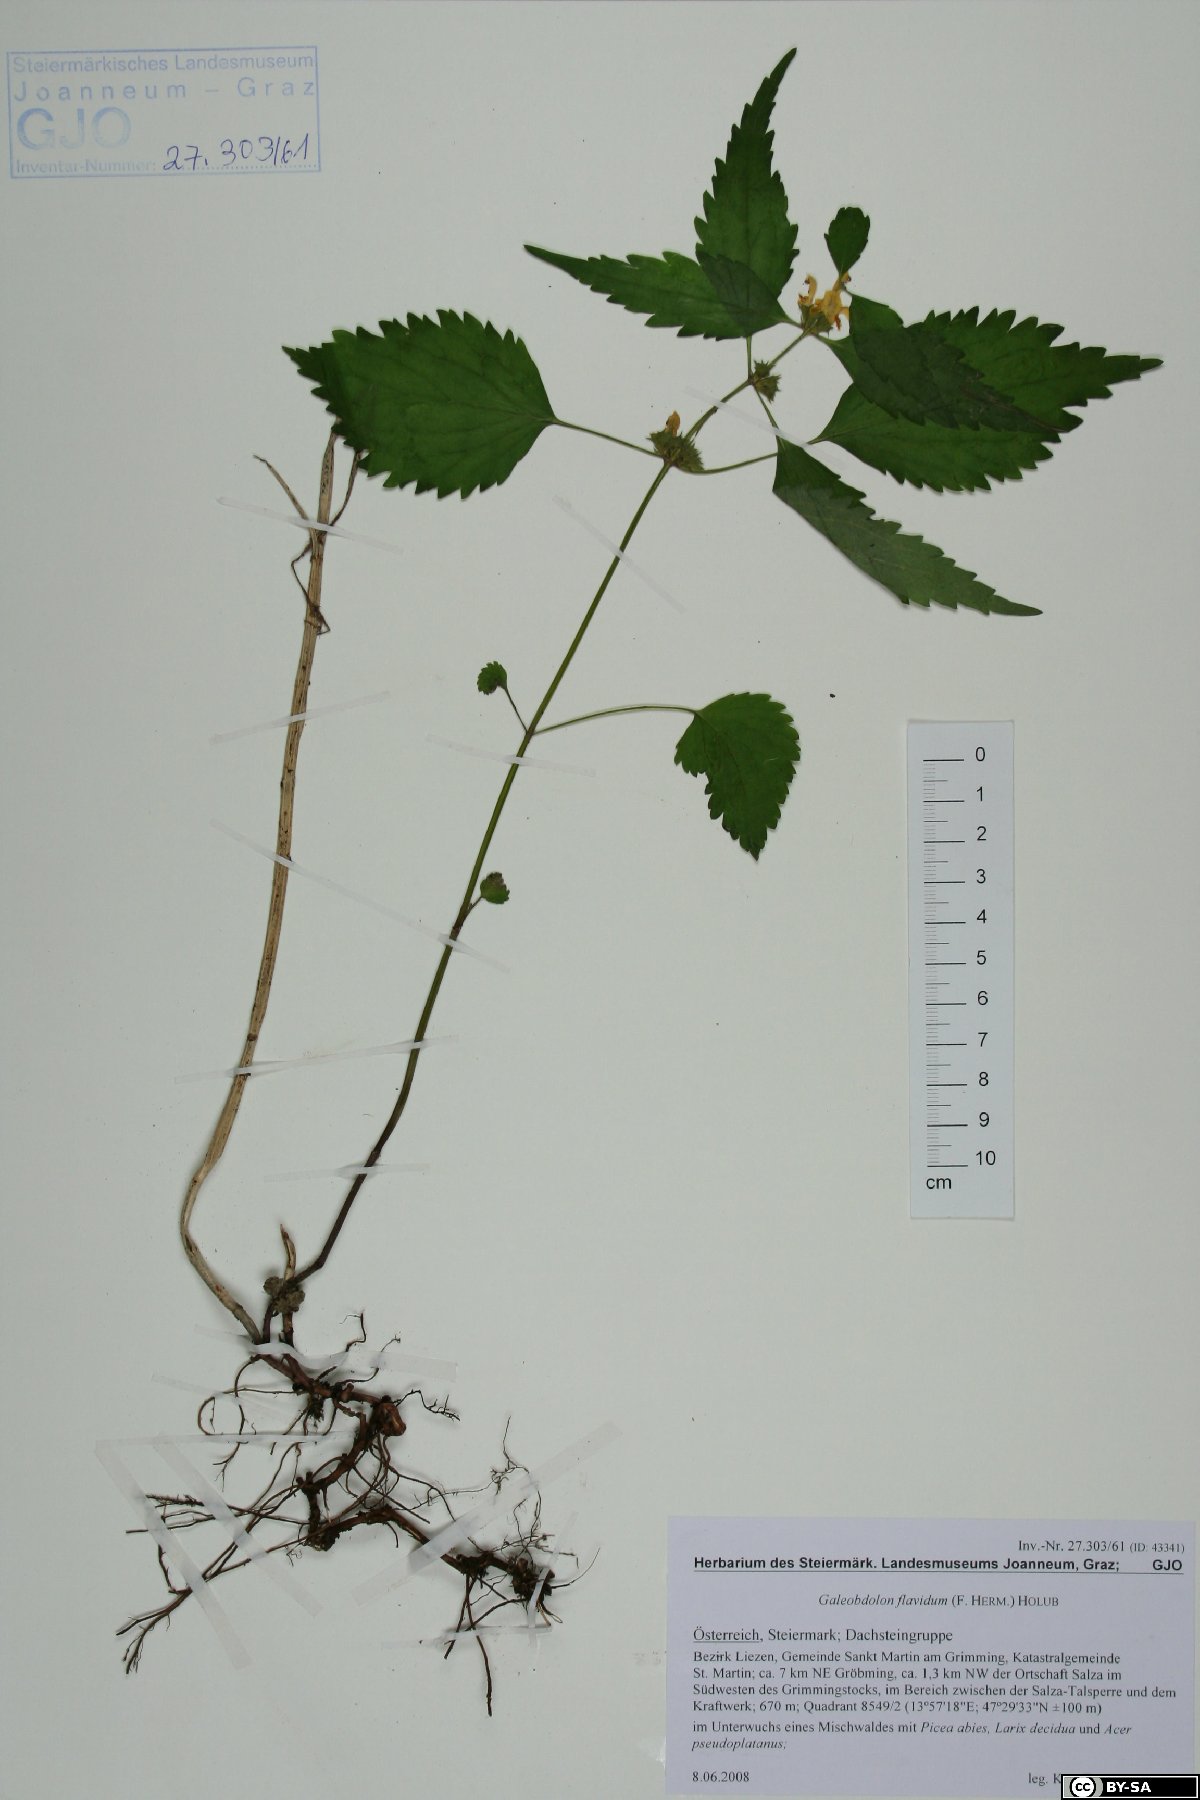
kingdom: Plantae
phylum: Tracheophyta
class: Magnoliopsida
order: Lamiales
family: Lamiaceae
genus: Lamium
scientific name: Lamium galeobdolon
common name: Yellow archangel
